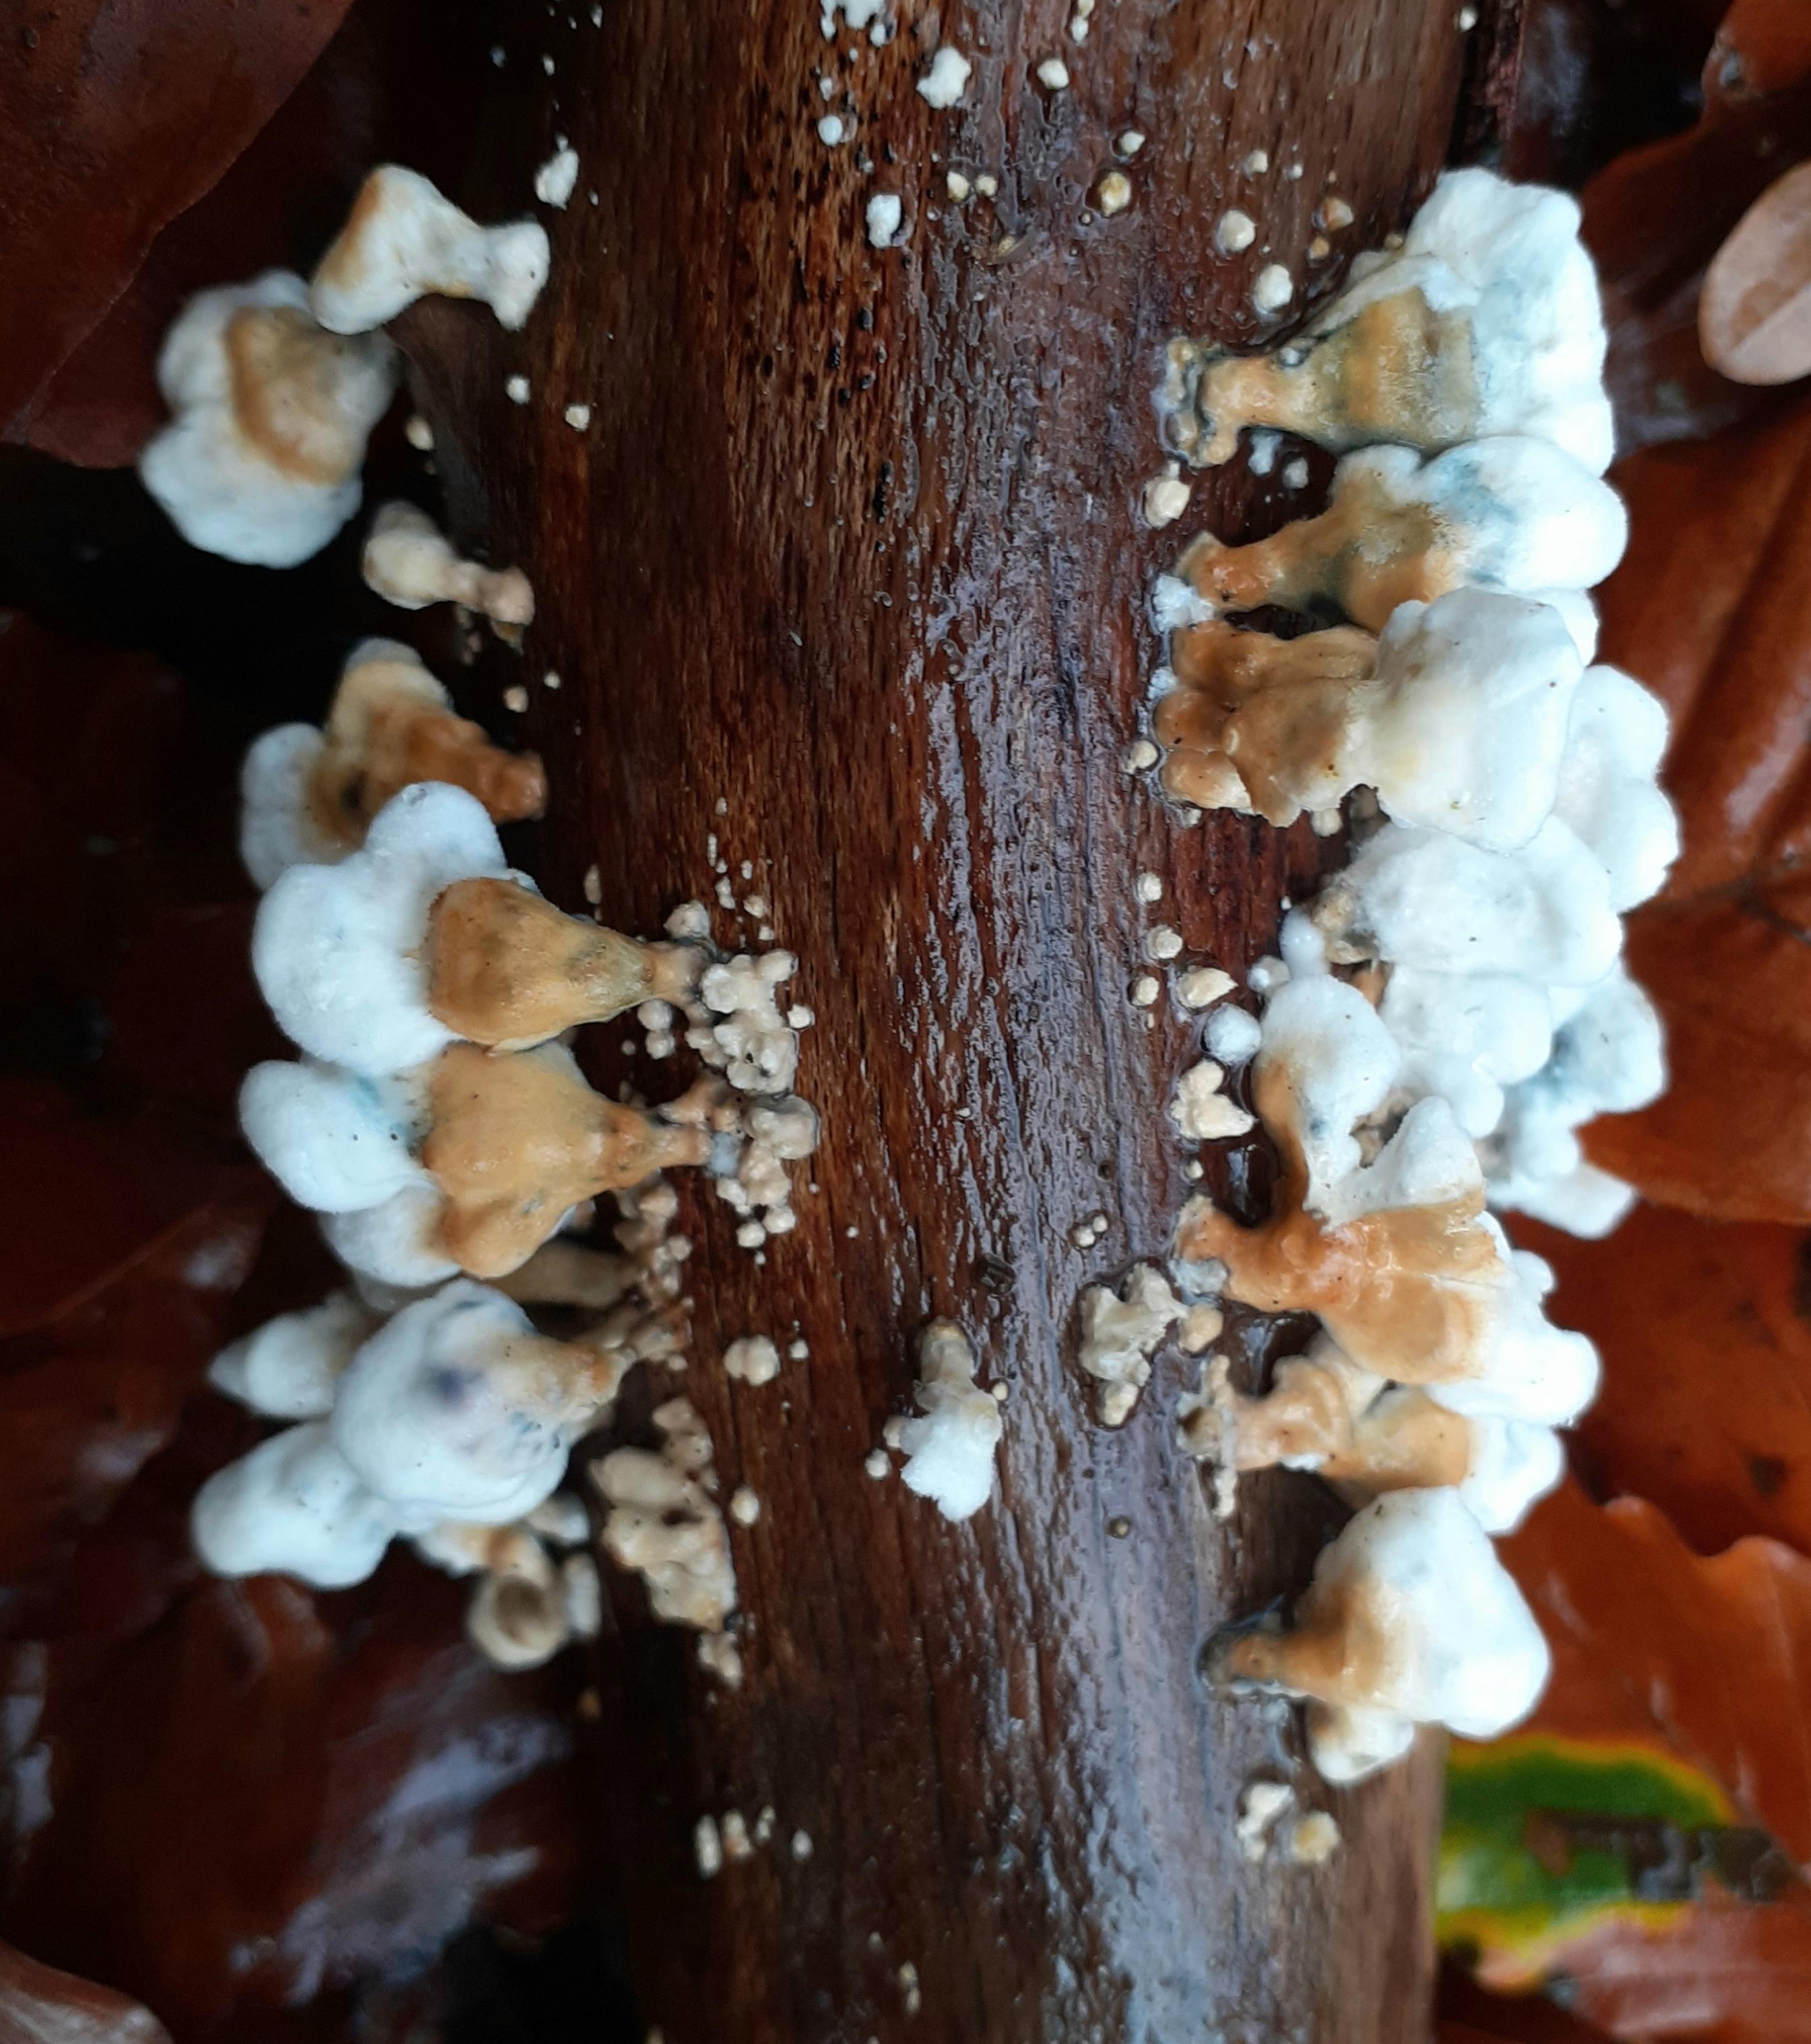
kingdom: Fungi
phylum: Basidiomycota
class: Agaricomycetes
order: Amylocorticiales
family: Amylocorticiaceae
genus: Plicaturopsis
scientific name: Plicaturopsis crispa
